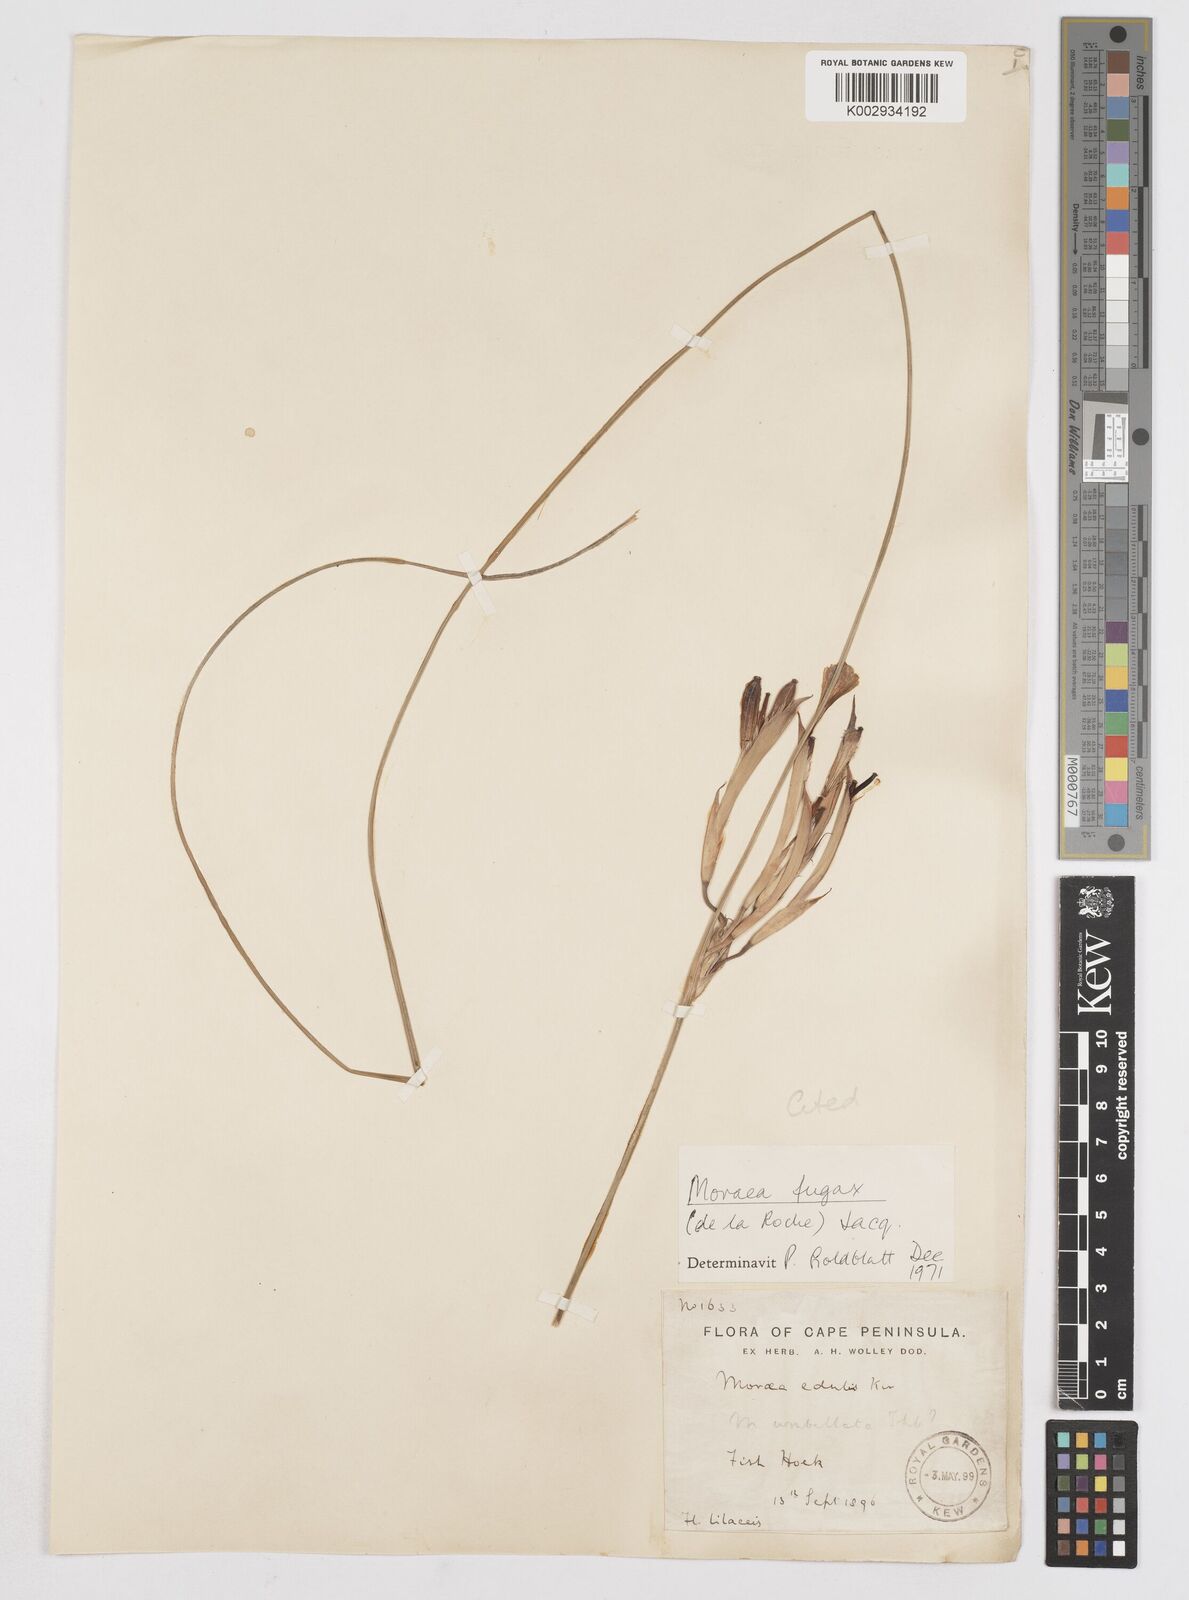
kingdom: Plantae
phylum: Tracheophyta
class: Liliopsida
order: Asparagales
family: Iridaceae
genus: Moraea
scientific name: Moraea fugax
